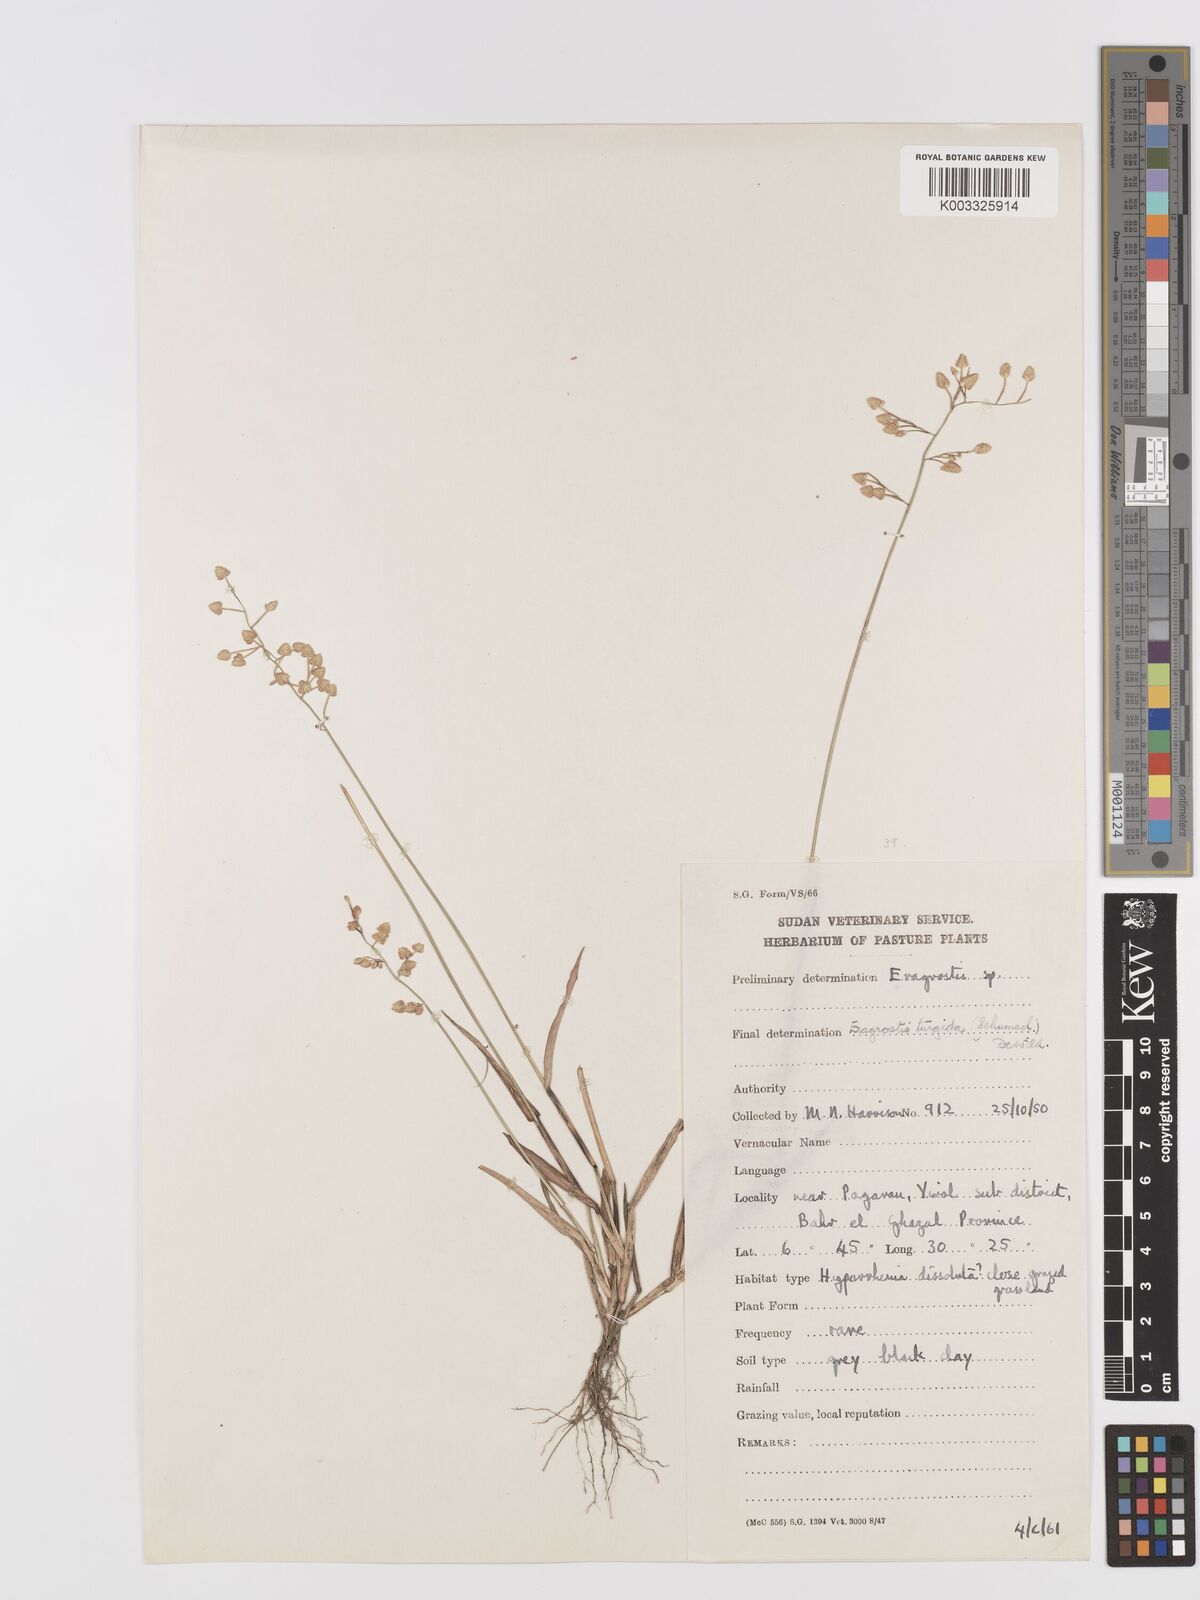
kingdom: Plantae
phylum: Tracheophyta
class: Liliopsida
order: Poales
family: Poaceae
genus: Eragrostis
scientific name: Eragrostis turgida
